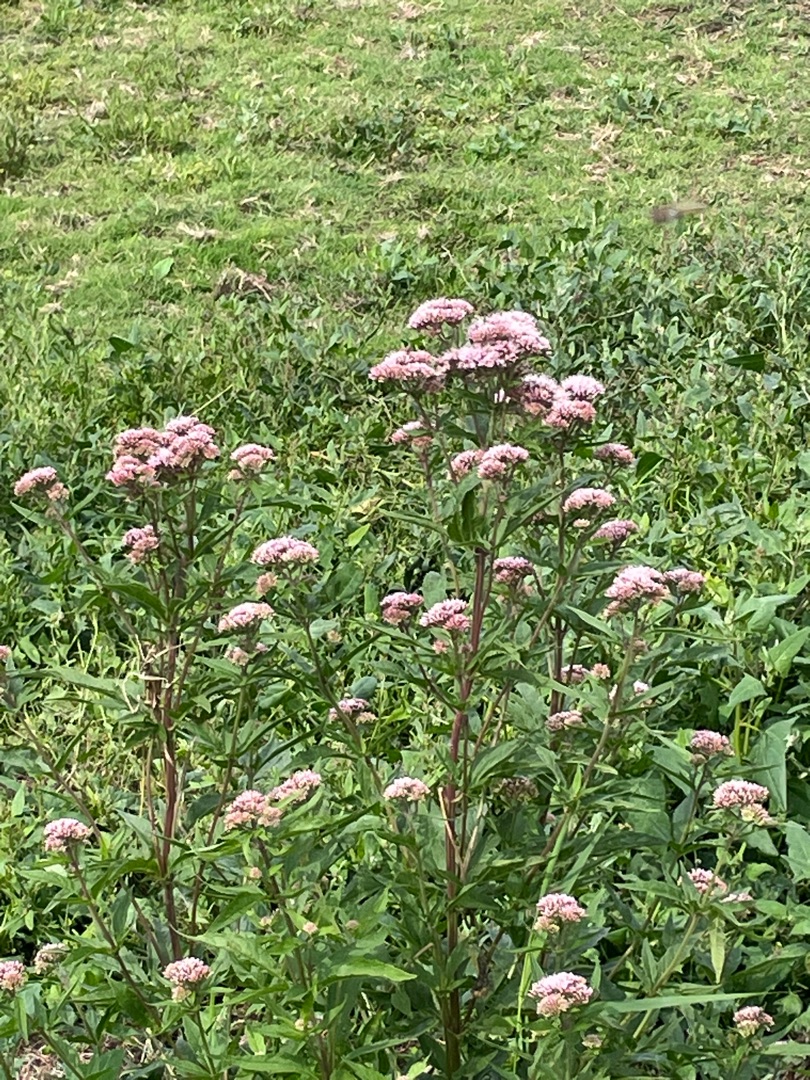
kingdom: Plantae
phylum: Tracheophyta
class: Magnoliopsida
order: Asterales
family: Asteraceae
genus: Eupatorium
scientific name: Eupatorium cannabinum
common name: Hjortetrøst
